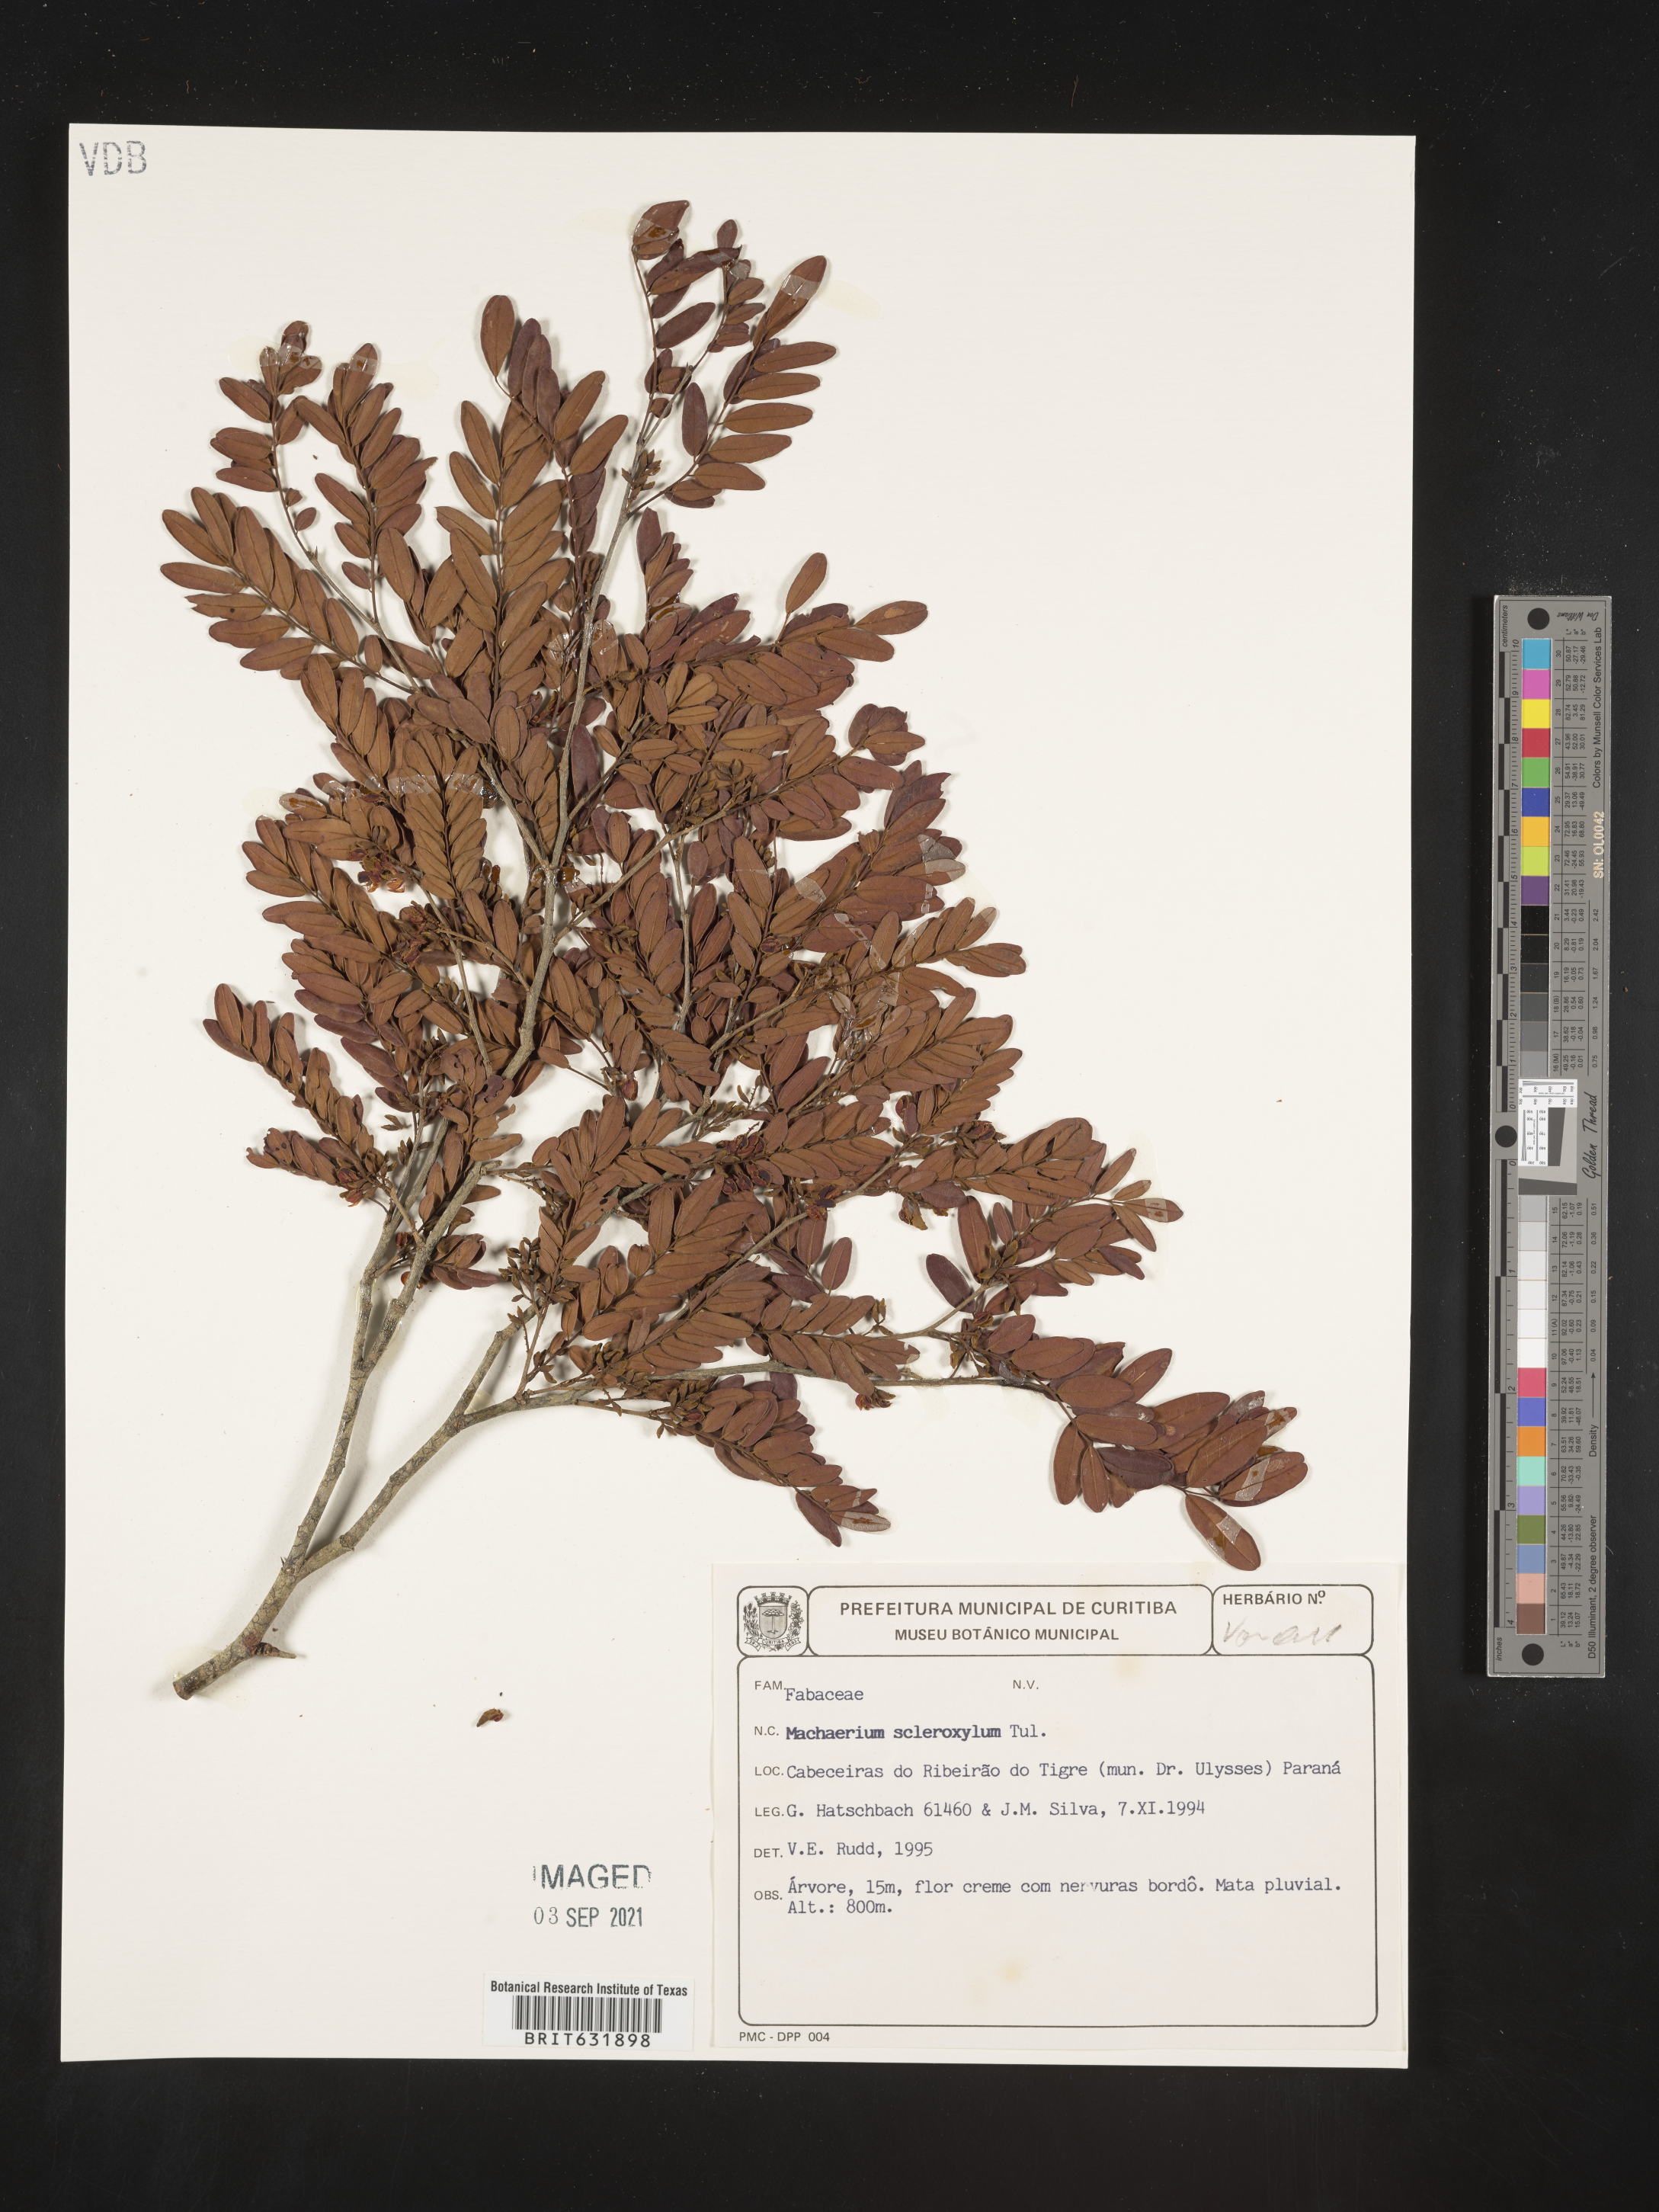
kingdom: Plantae
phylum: Tracheophyta
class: Magnoliopsida
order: Fabales
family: Fabaceae
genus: Machaerium
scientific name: Machaerium
